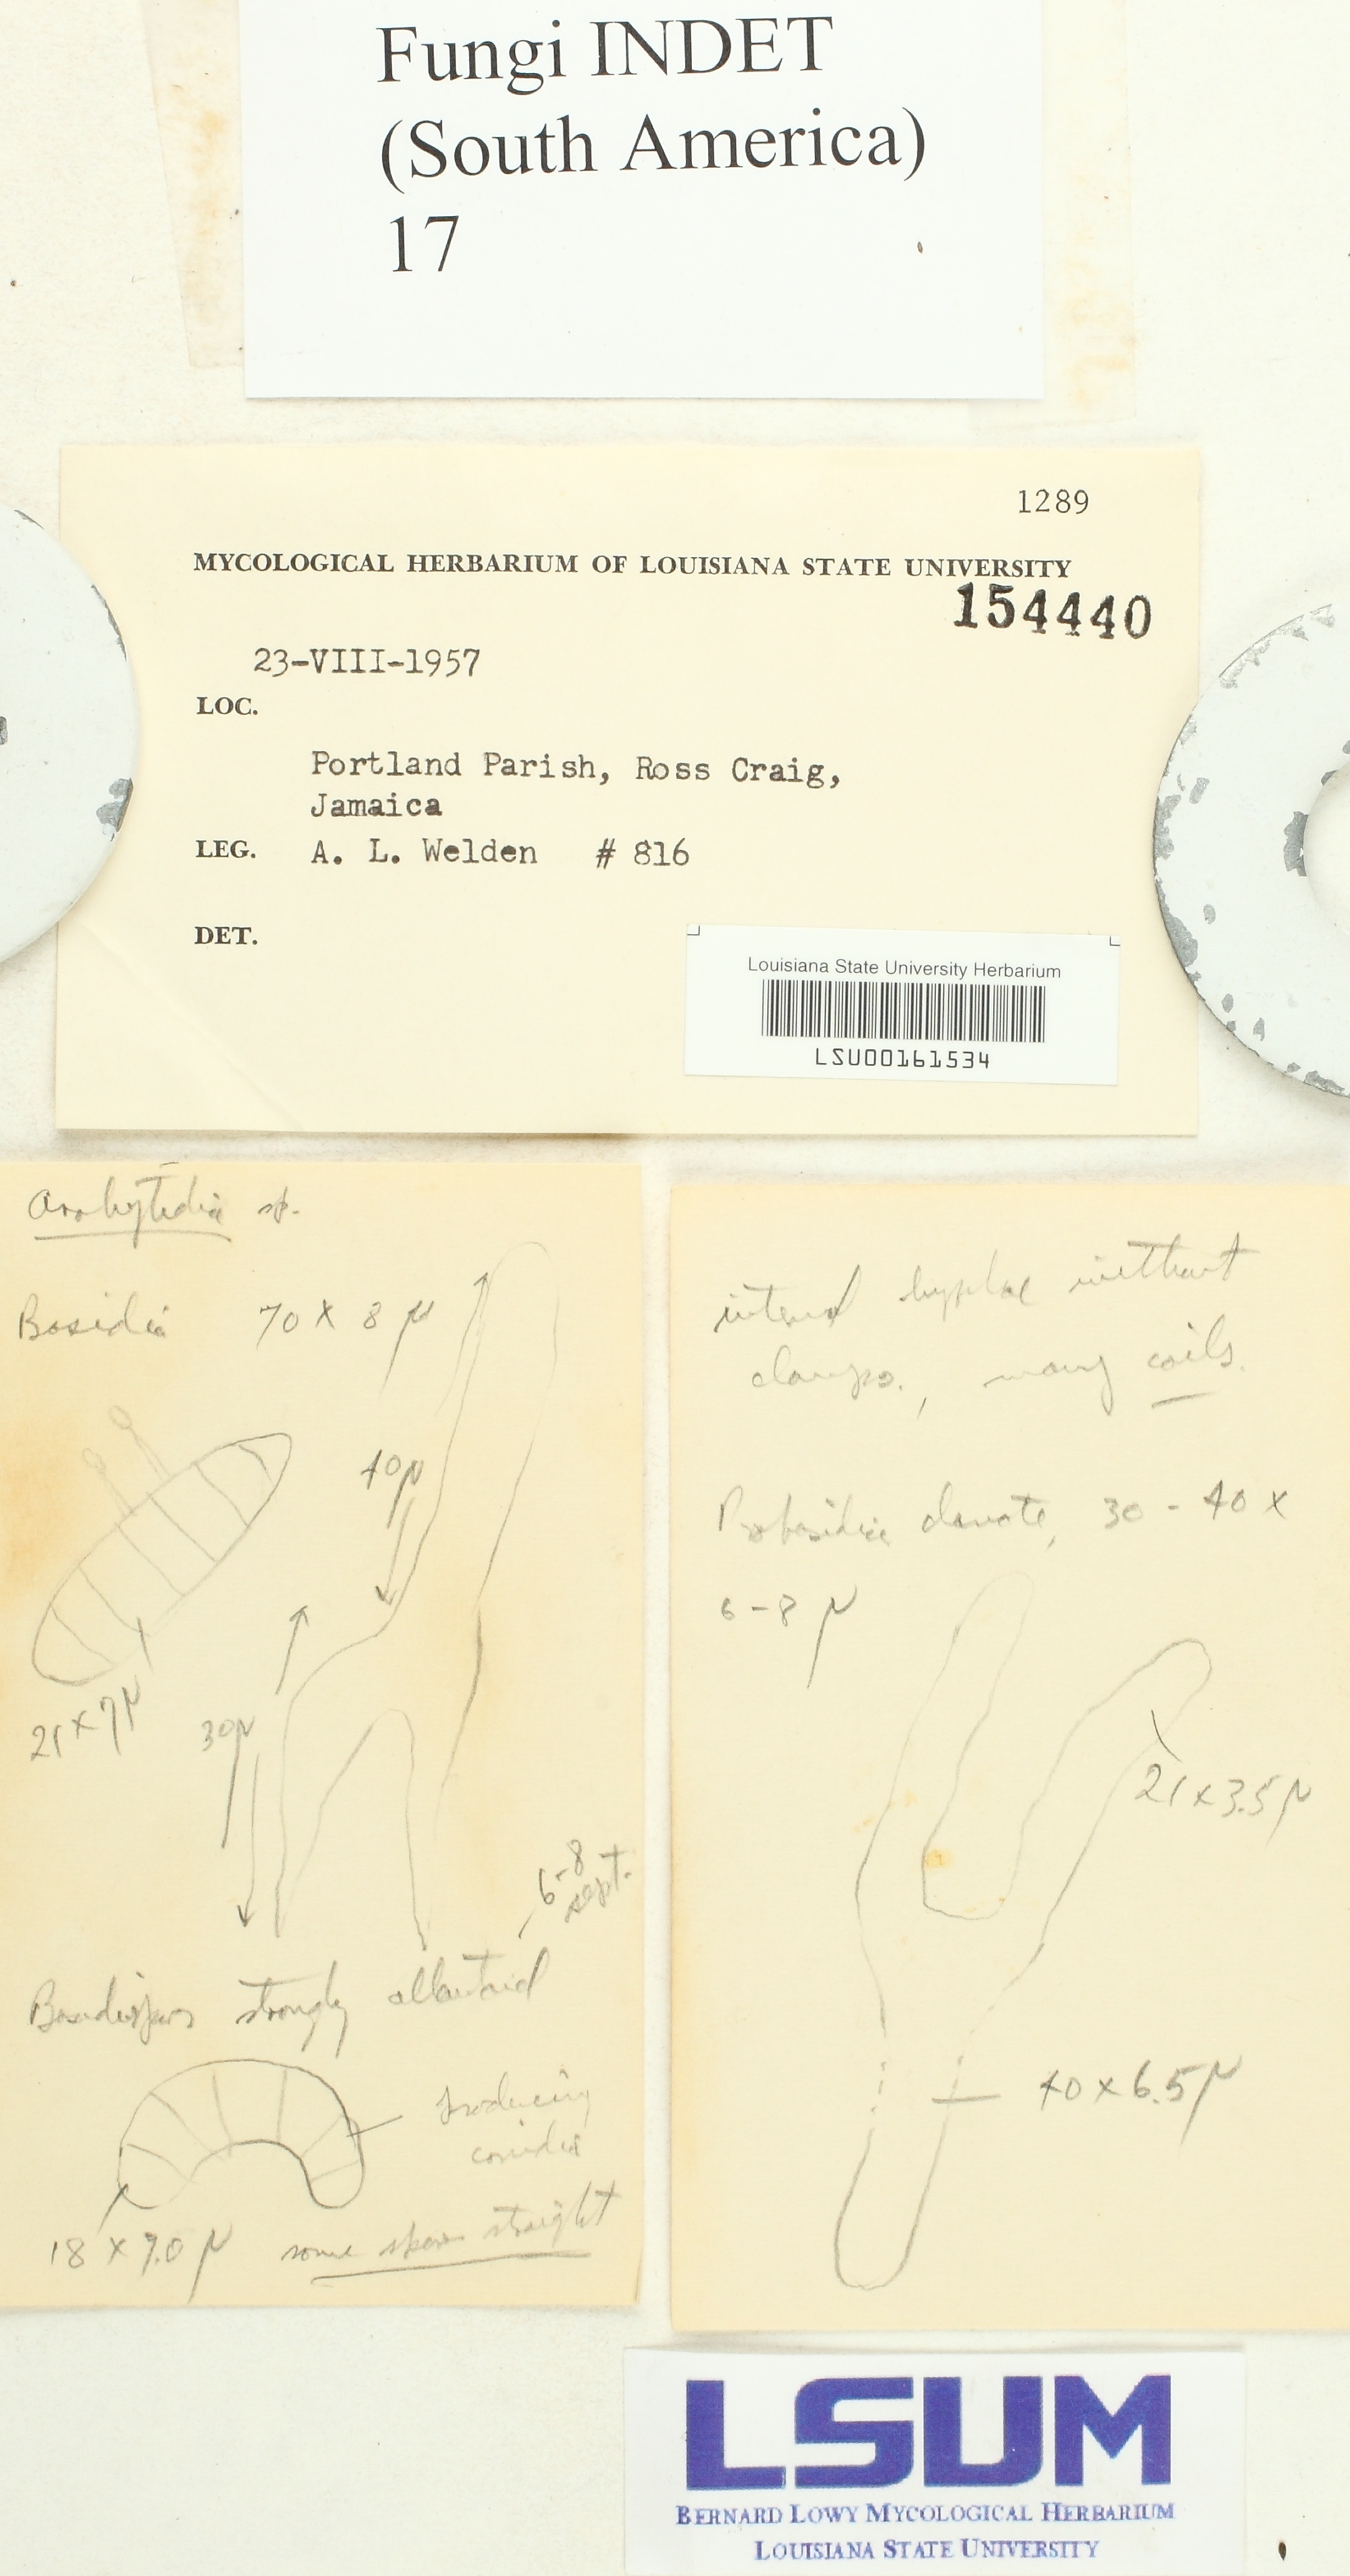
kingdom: Fungi
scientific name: Fungi
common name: Fungi
